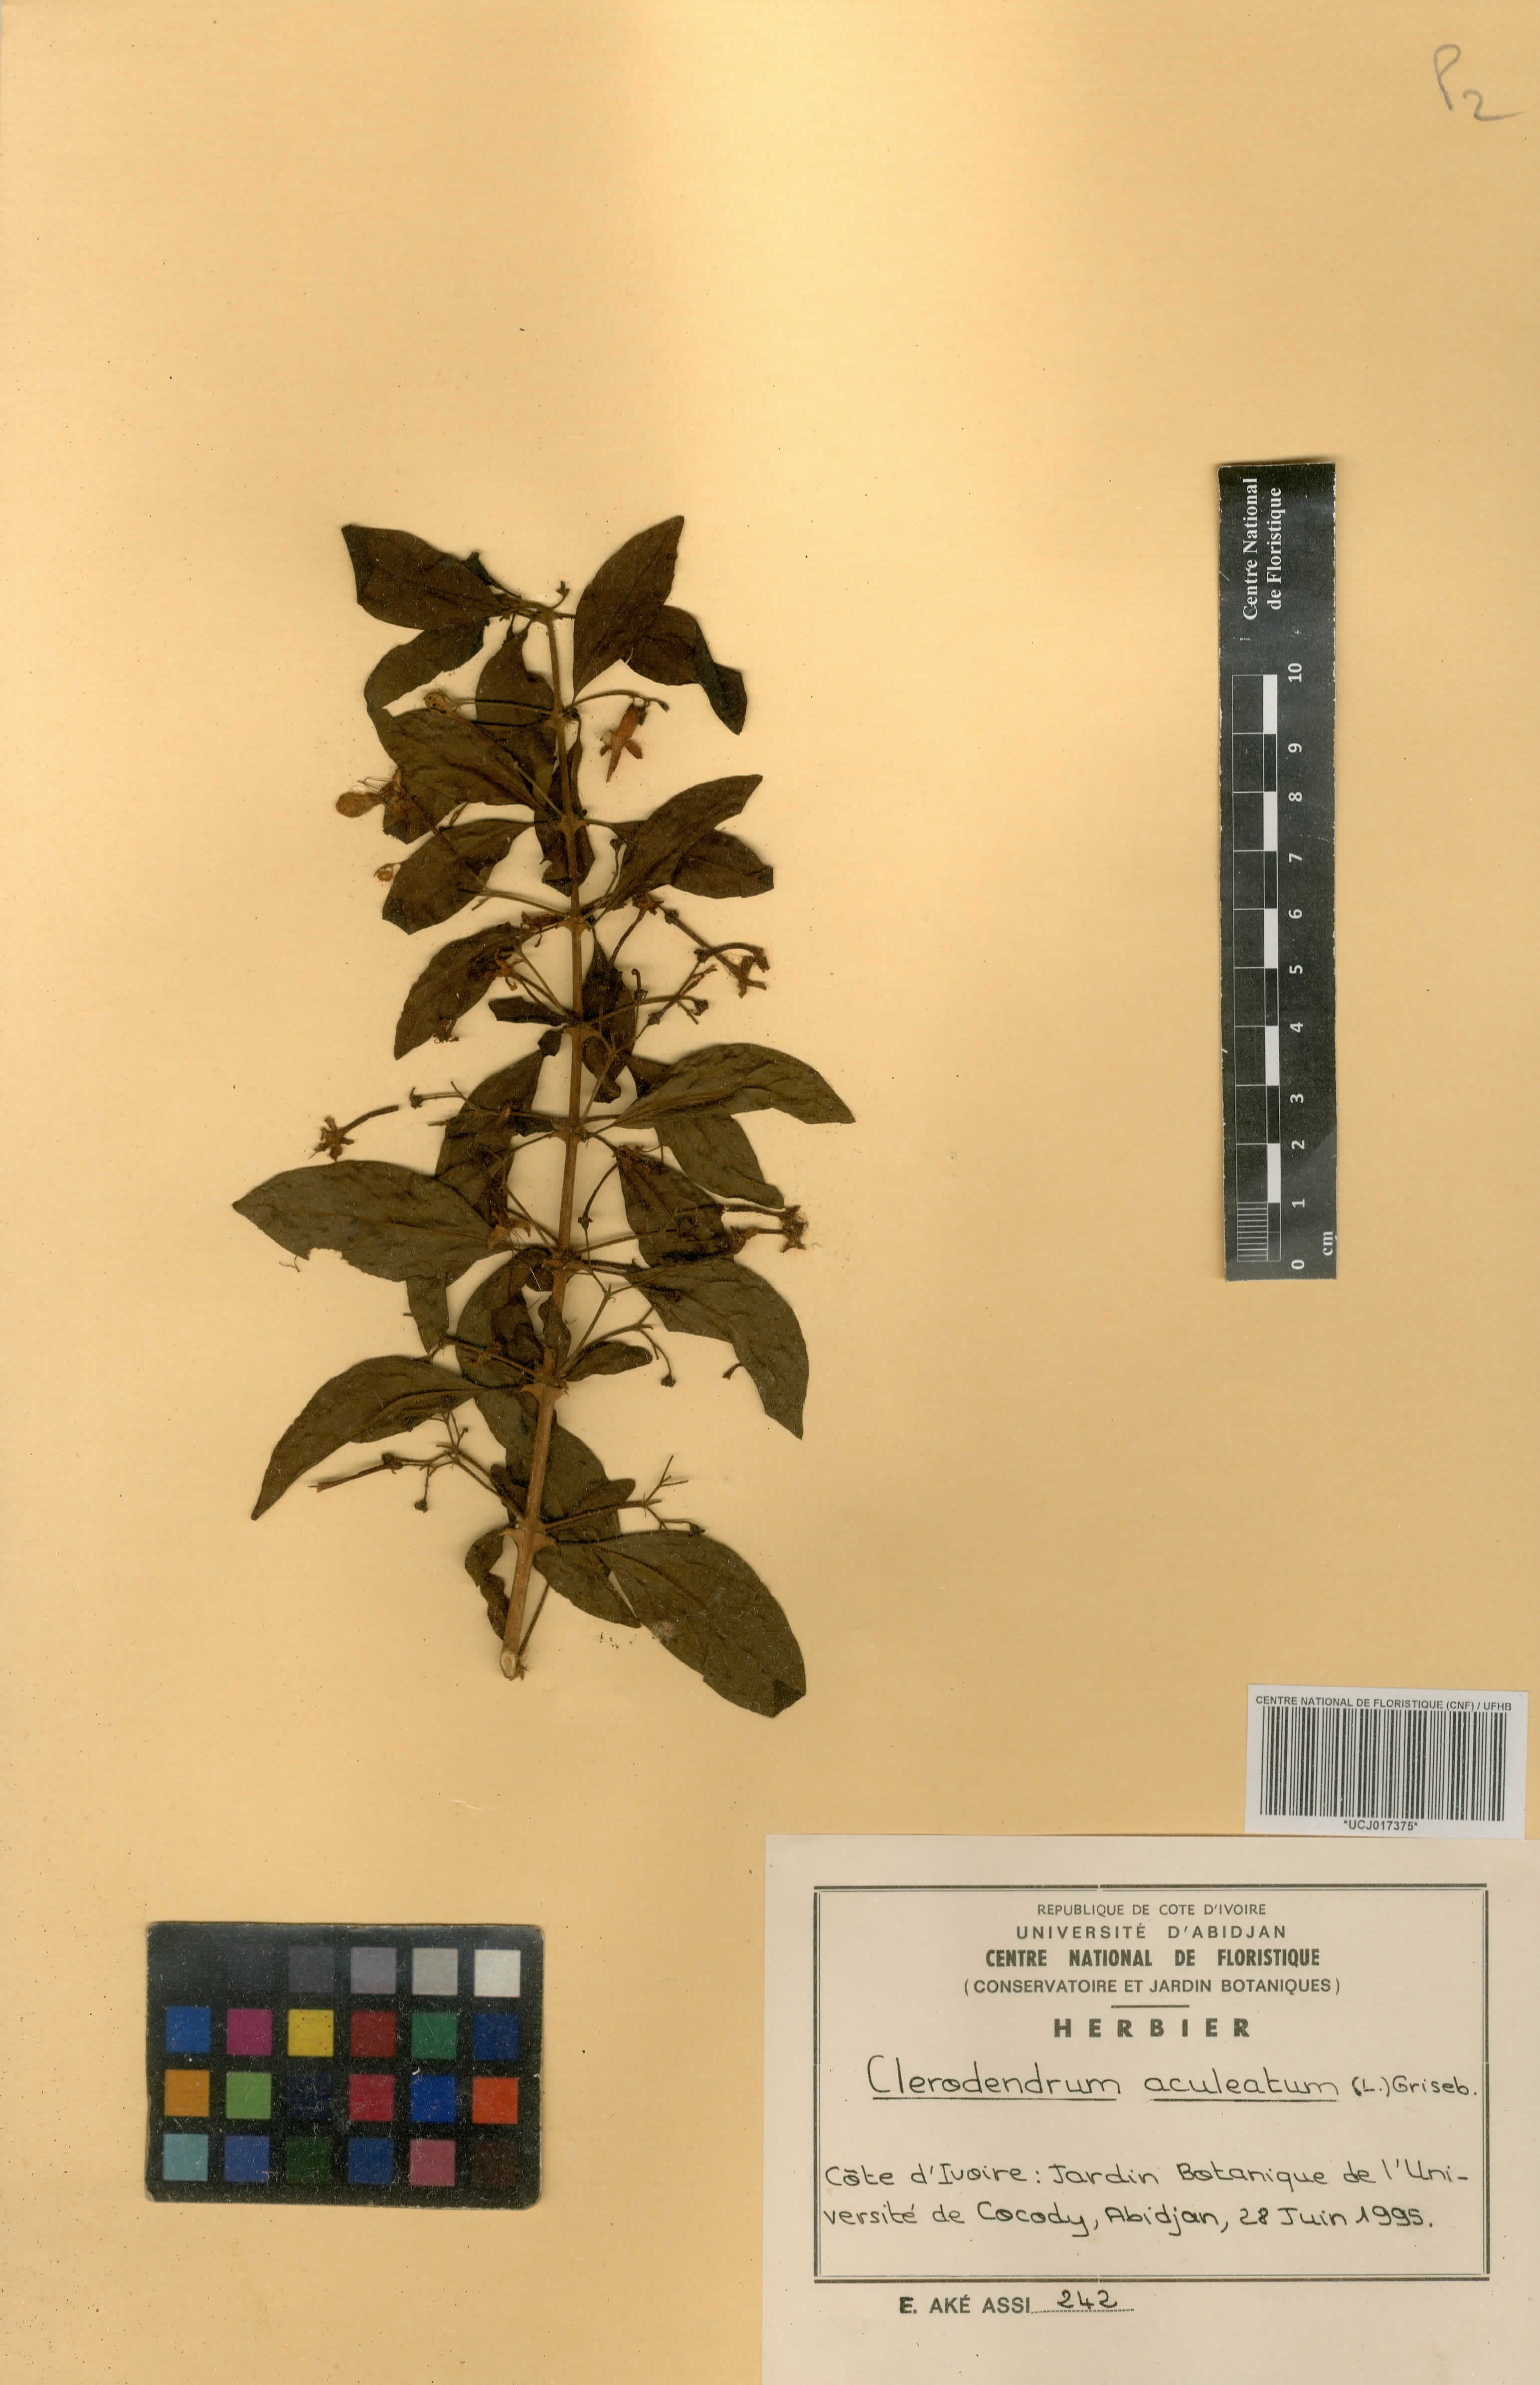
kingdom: Plantae
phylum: Tracheophyta
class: Magnoliopsida
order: Lamiales
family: Lamiaceae
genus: Clerodendrum
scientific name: Clerodendrum aculeatum
